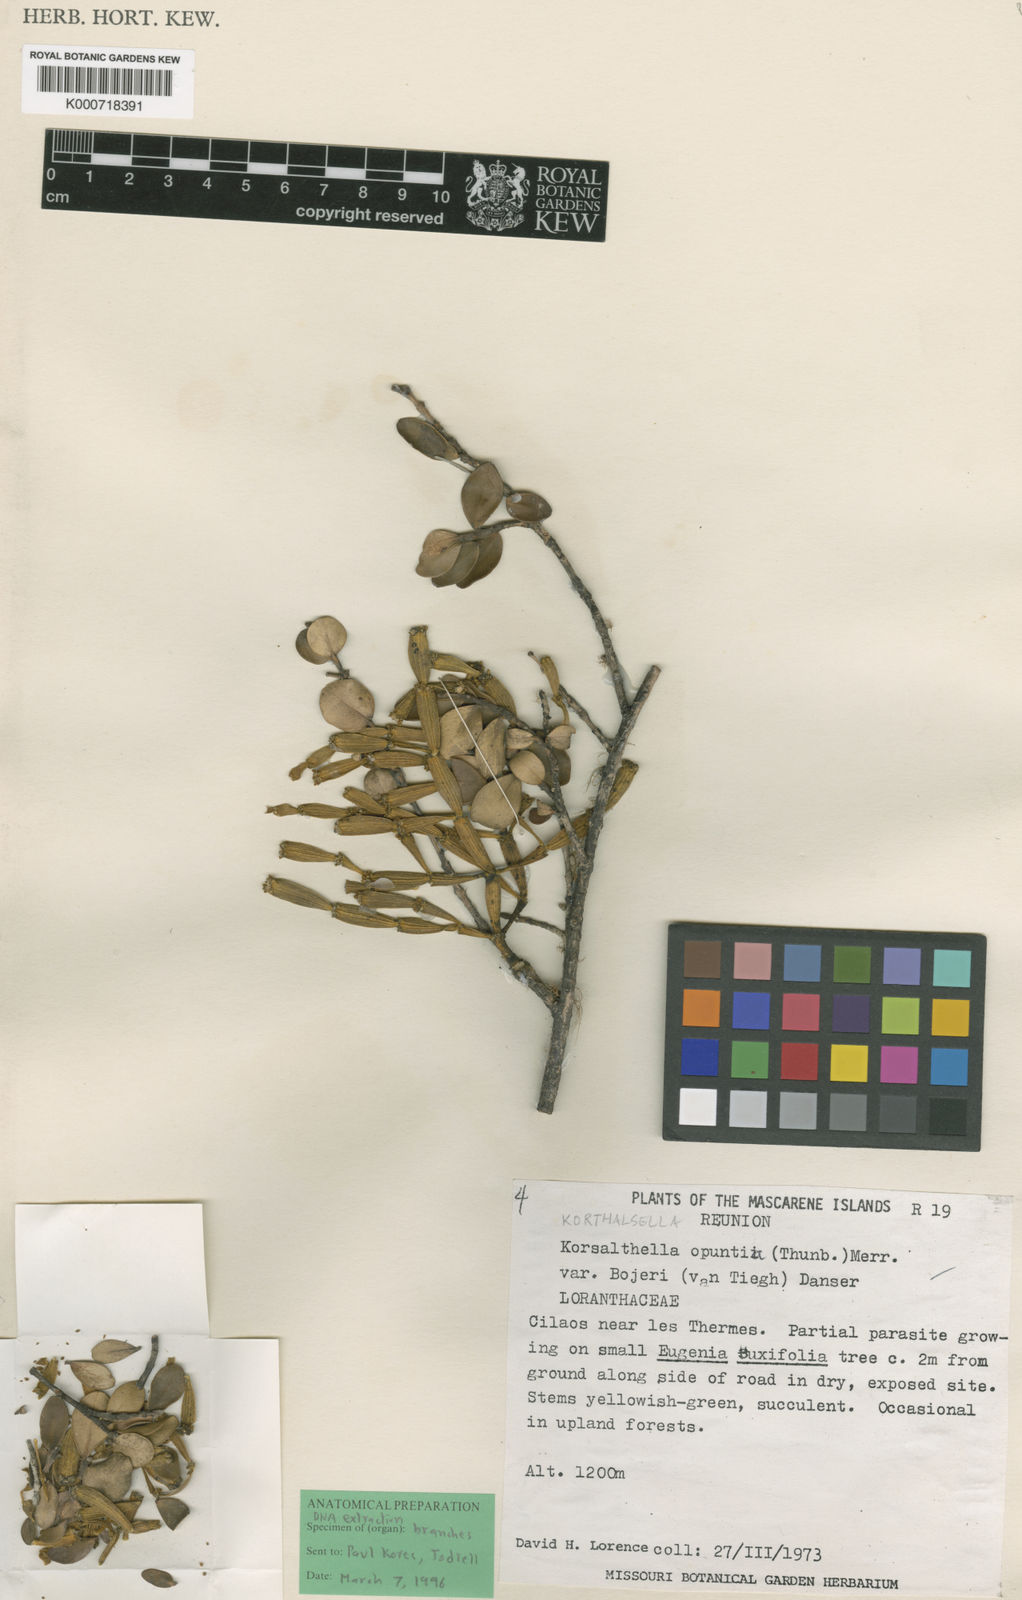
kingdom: Plantae
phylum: Tracheophyta
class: Magnoliopsida
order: Santalales
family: Viscaceae
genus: Korthalsella
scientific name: Korthalsella
